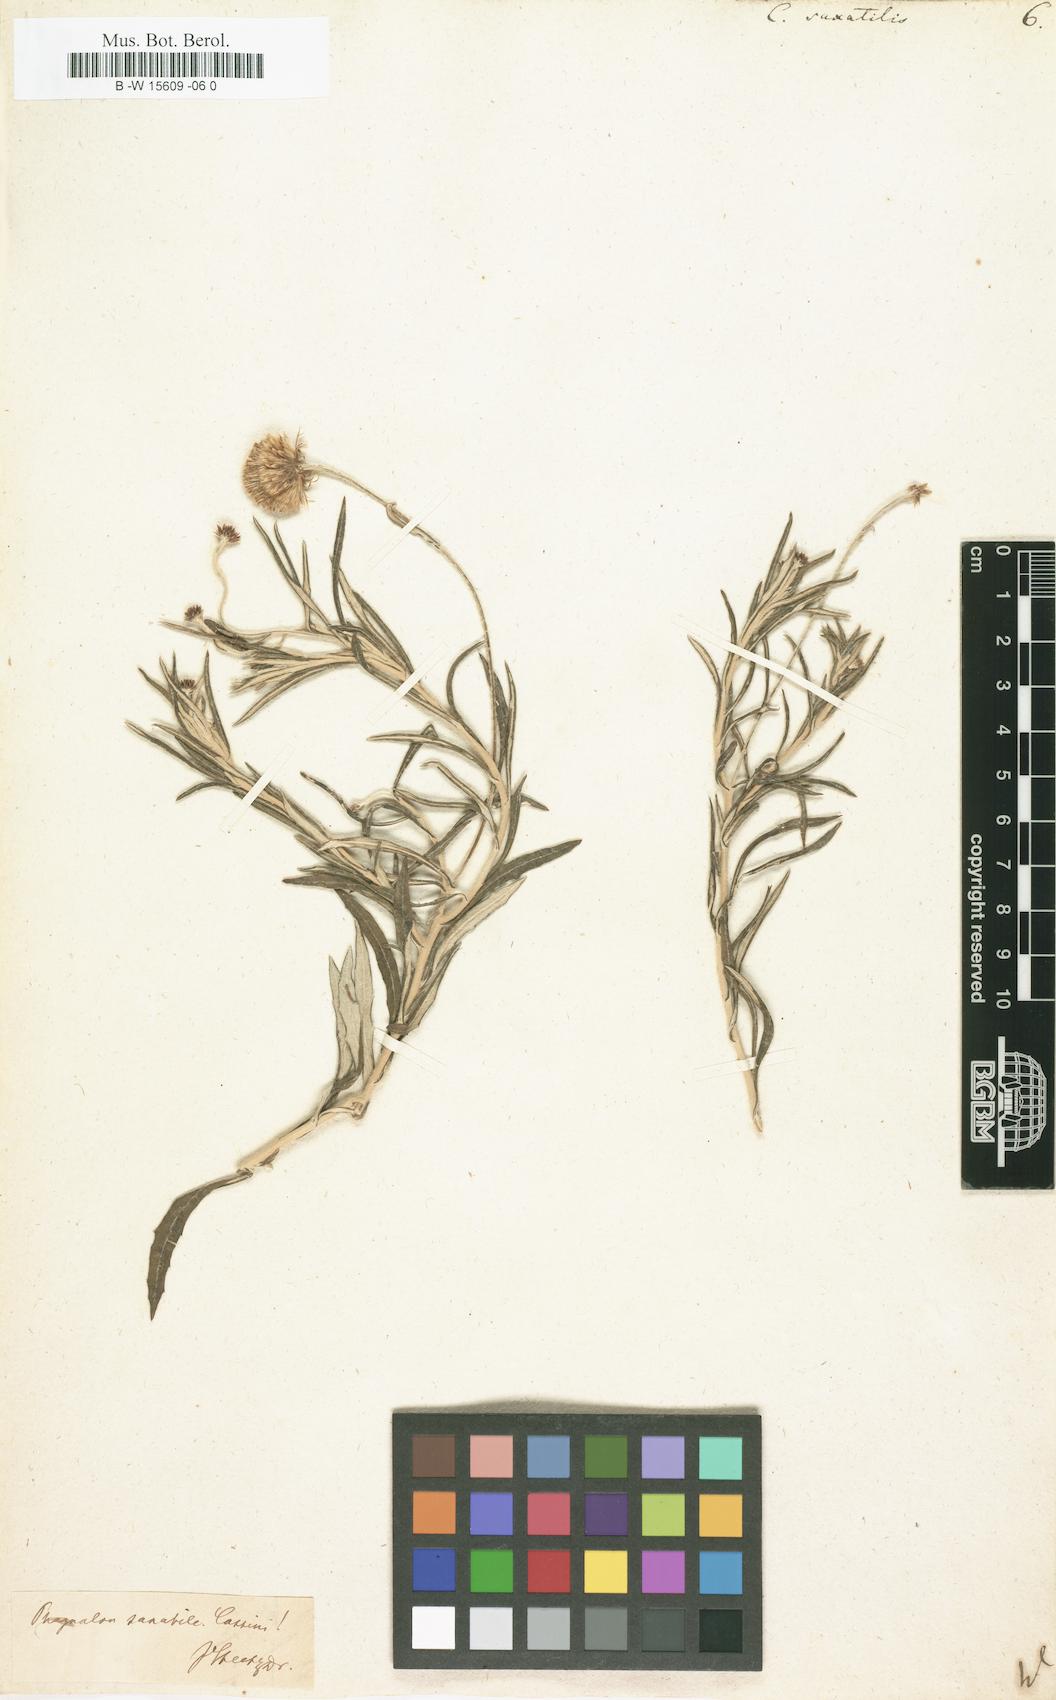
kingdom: Plantae
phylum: Tracheophyta
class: Magnoliopsida
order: Asterales
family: Asteraceae
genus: Phagnalon
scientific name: Phagnalon saxatile
